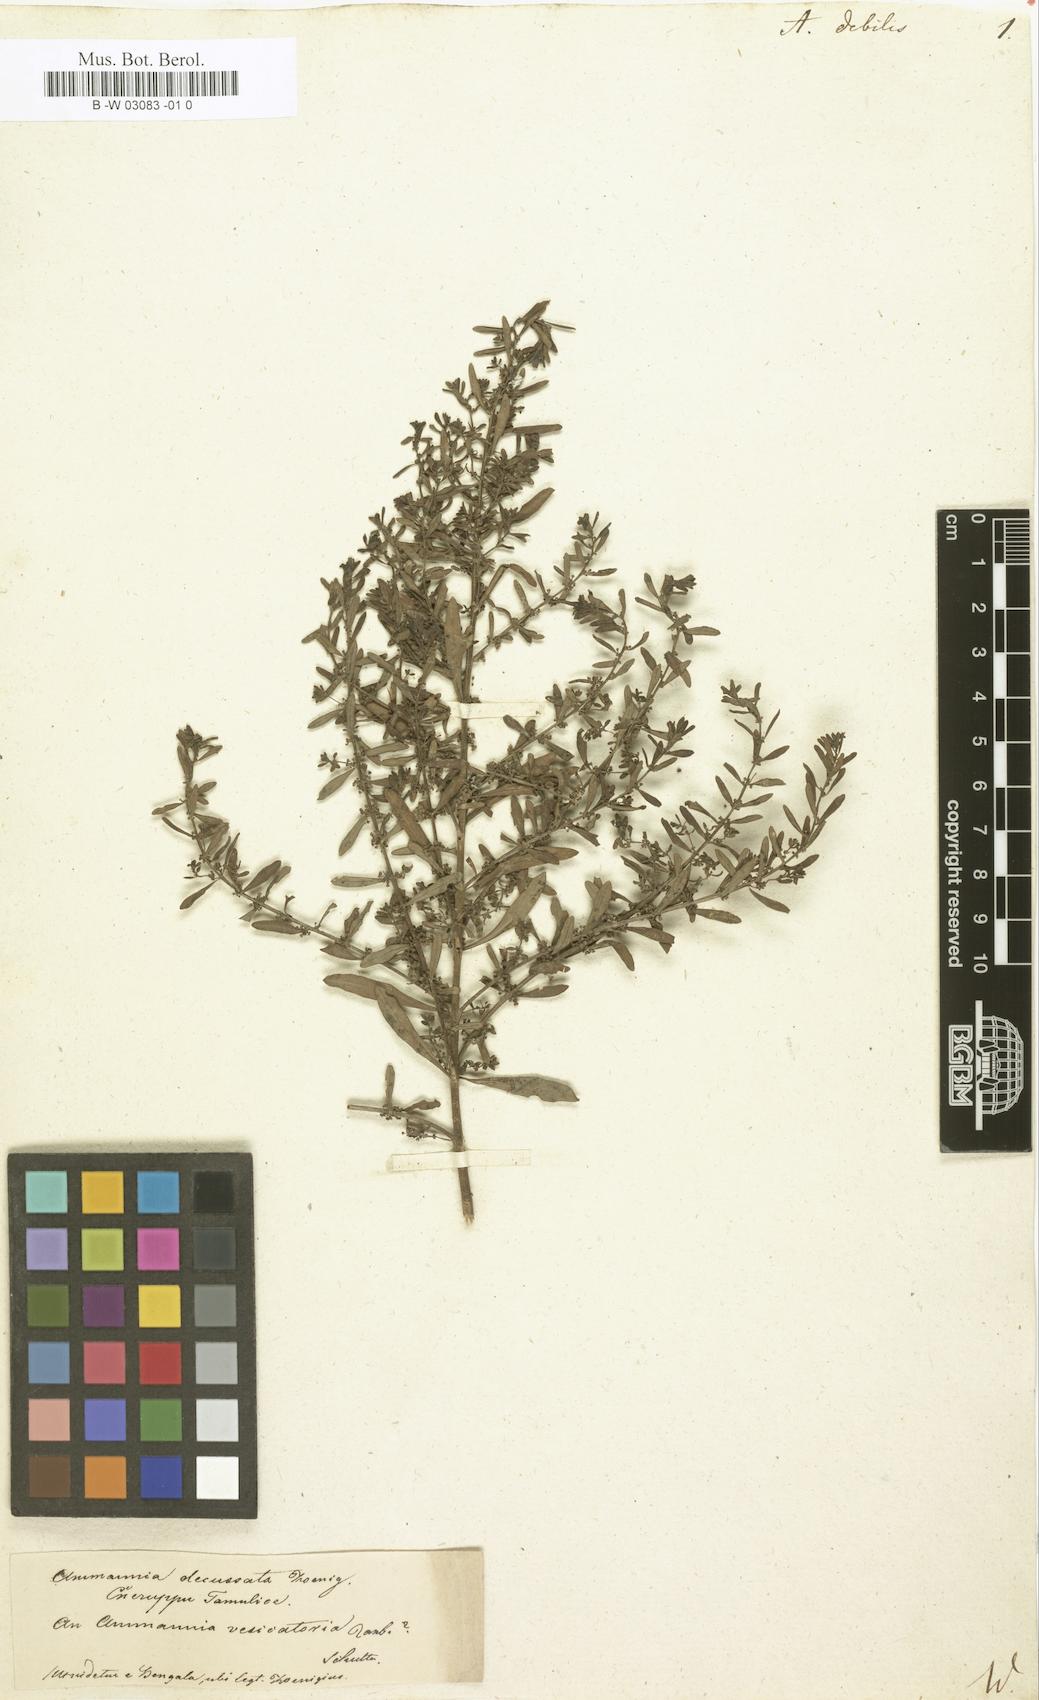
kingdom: Plantae
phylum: Tracheophyta
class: Magnoliopsida
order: Myrtales
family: Lythraceae
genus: Ammannia
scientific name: Ammannia auriculata
